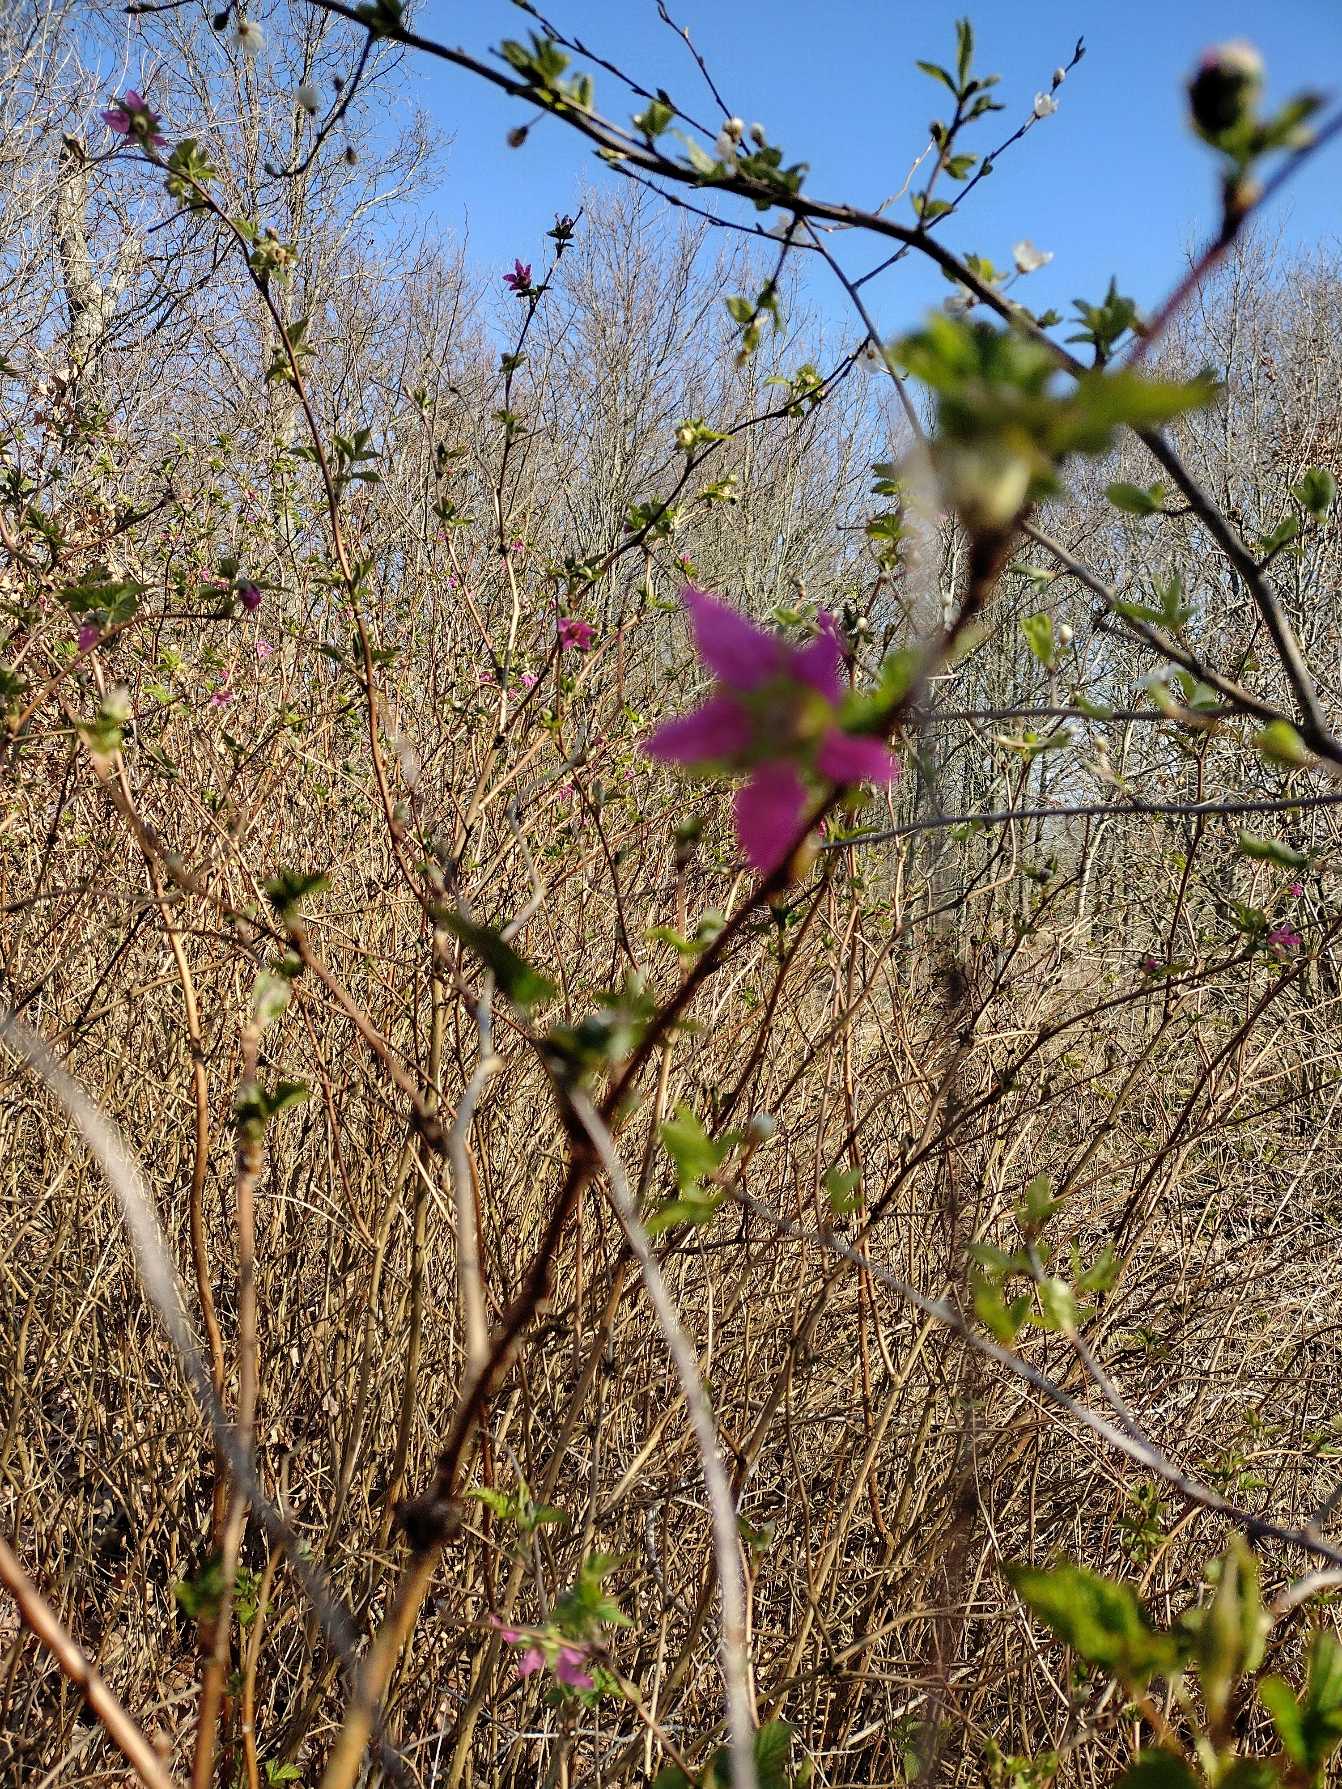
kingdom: Plantae
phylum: Tracheophyta
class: Magnoliopsida
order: Rosales
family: Rosaceae
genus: Rubus
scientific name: Rubus spectabilis
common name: Laksebær
